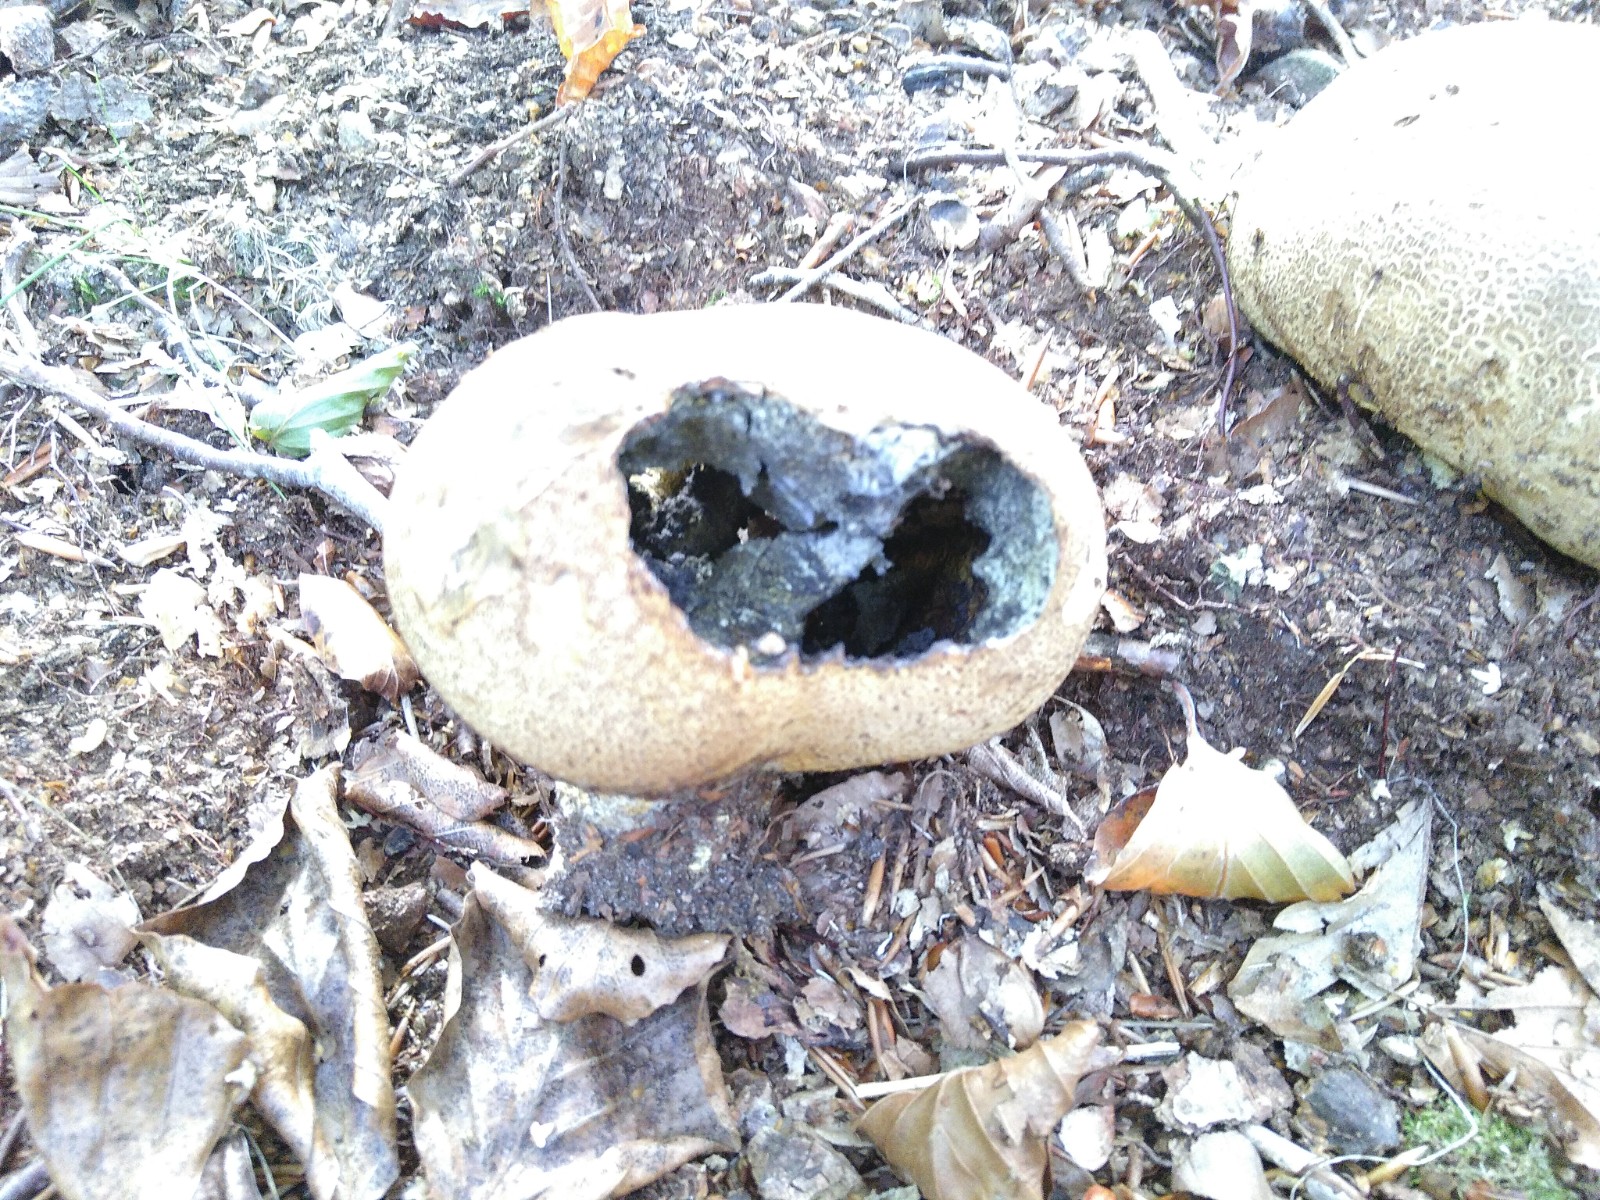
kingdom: Fungi
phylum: Basidiomycota
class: Agaricomycetes
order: Boletales
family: Sclerodermataceae
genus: Scleroderma
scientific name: Scleroderma
